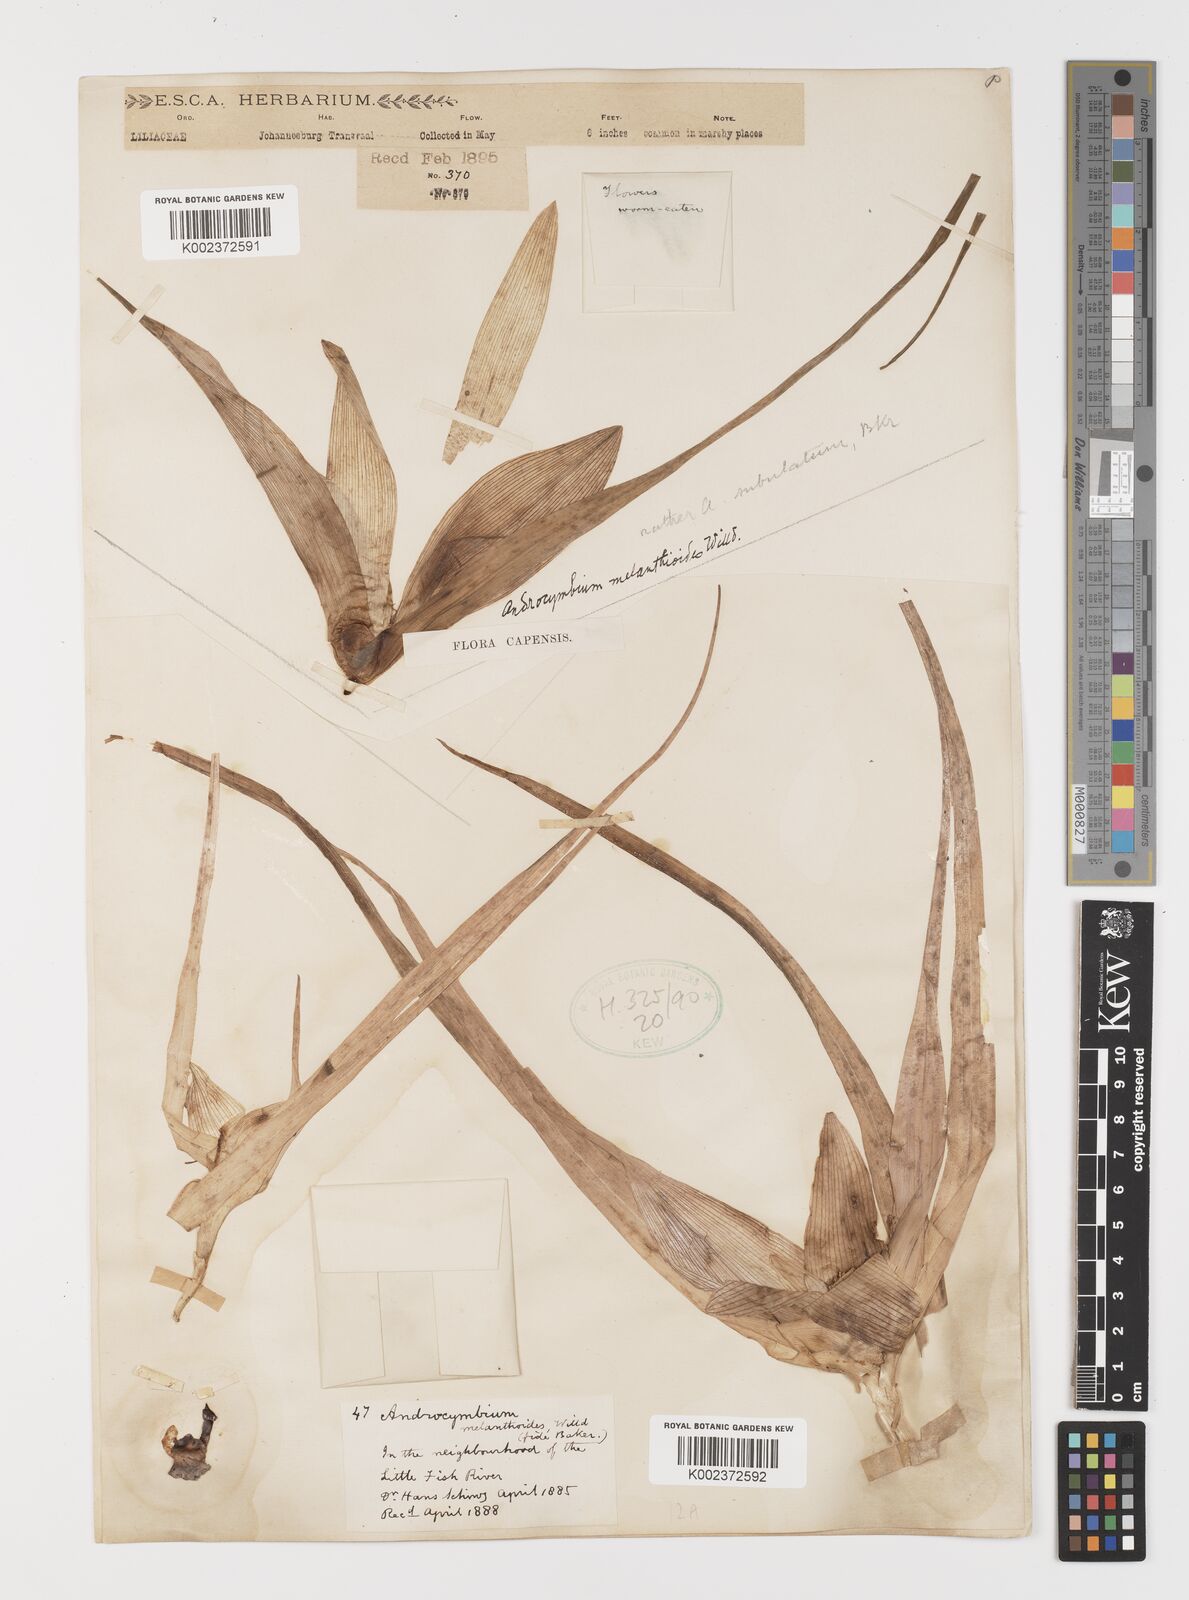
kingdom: Plantae
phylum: Tracheophyta
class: Liliopsida
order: Liliales
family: Colchicaceae
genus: Colchicum
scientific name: Colchicum melanthioides
